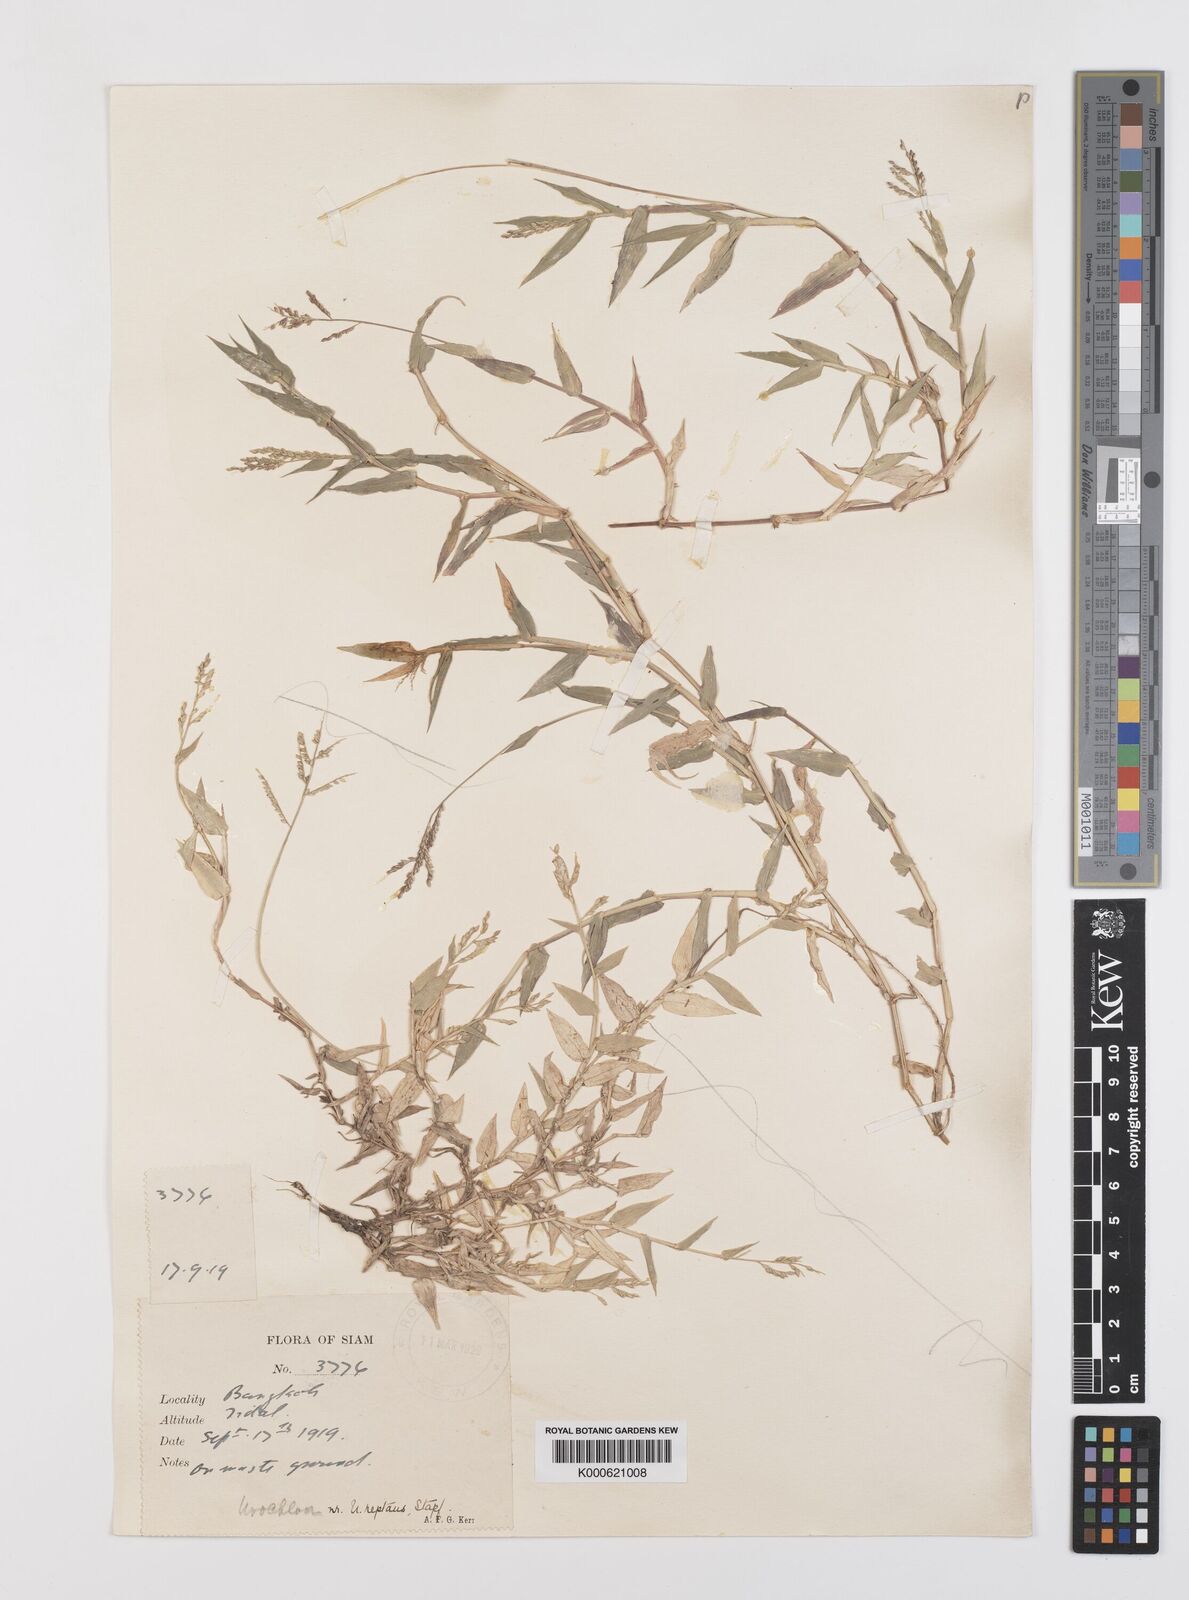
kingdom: Plantae
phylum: Tracheophyta
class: Liliopsida
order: Poales
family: Poaceae
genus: Urochloa
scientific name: Urochloa reptans
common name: Sprawling signalgrass
